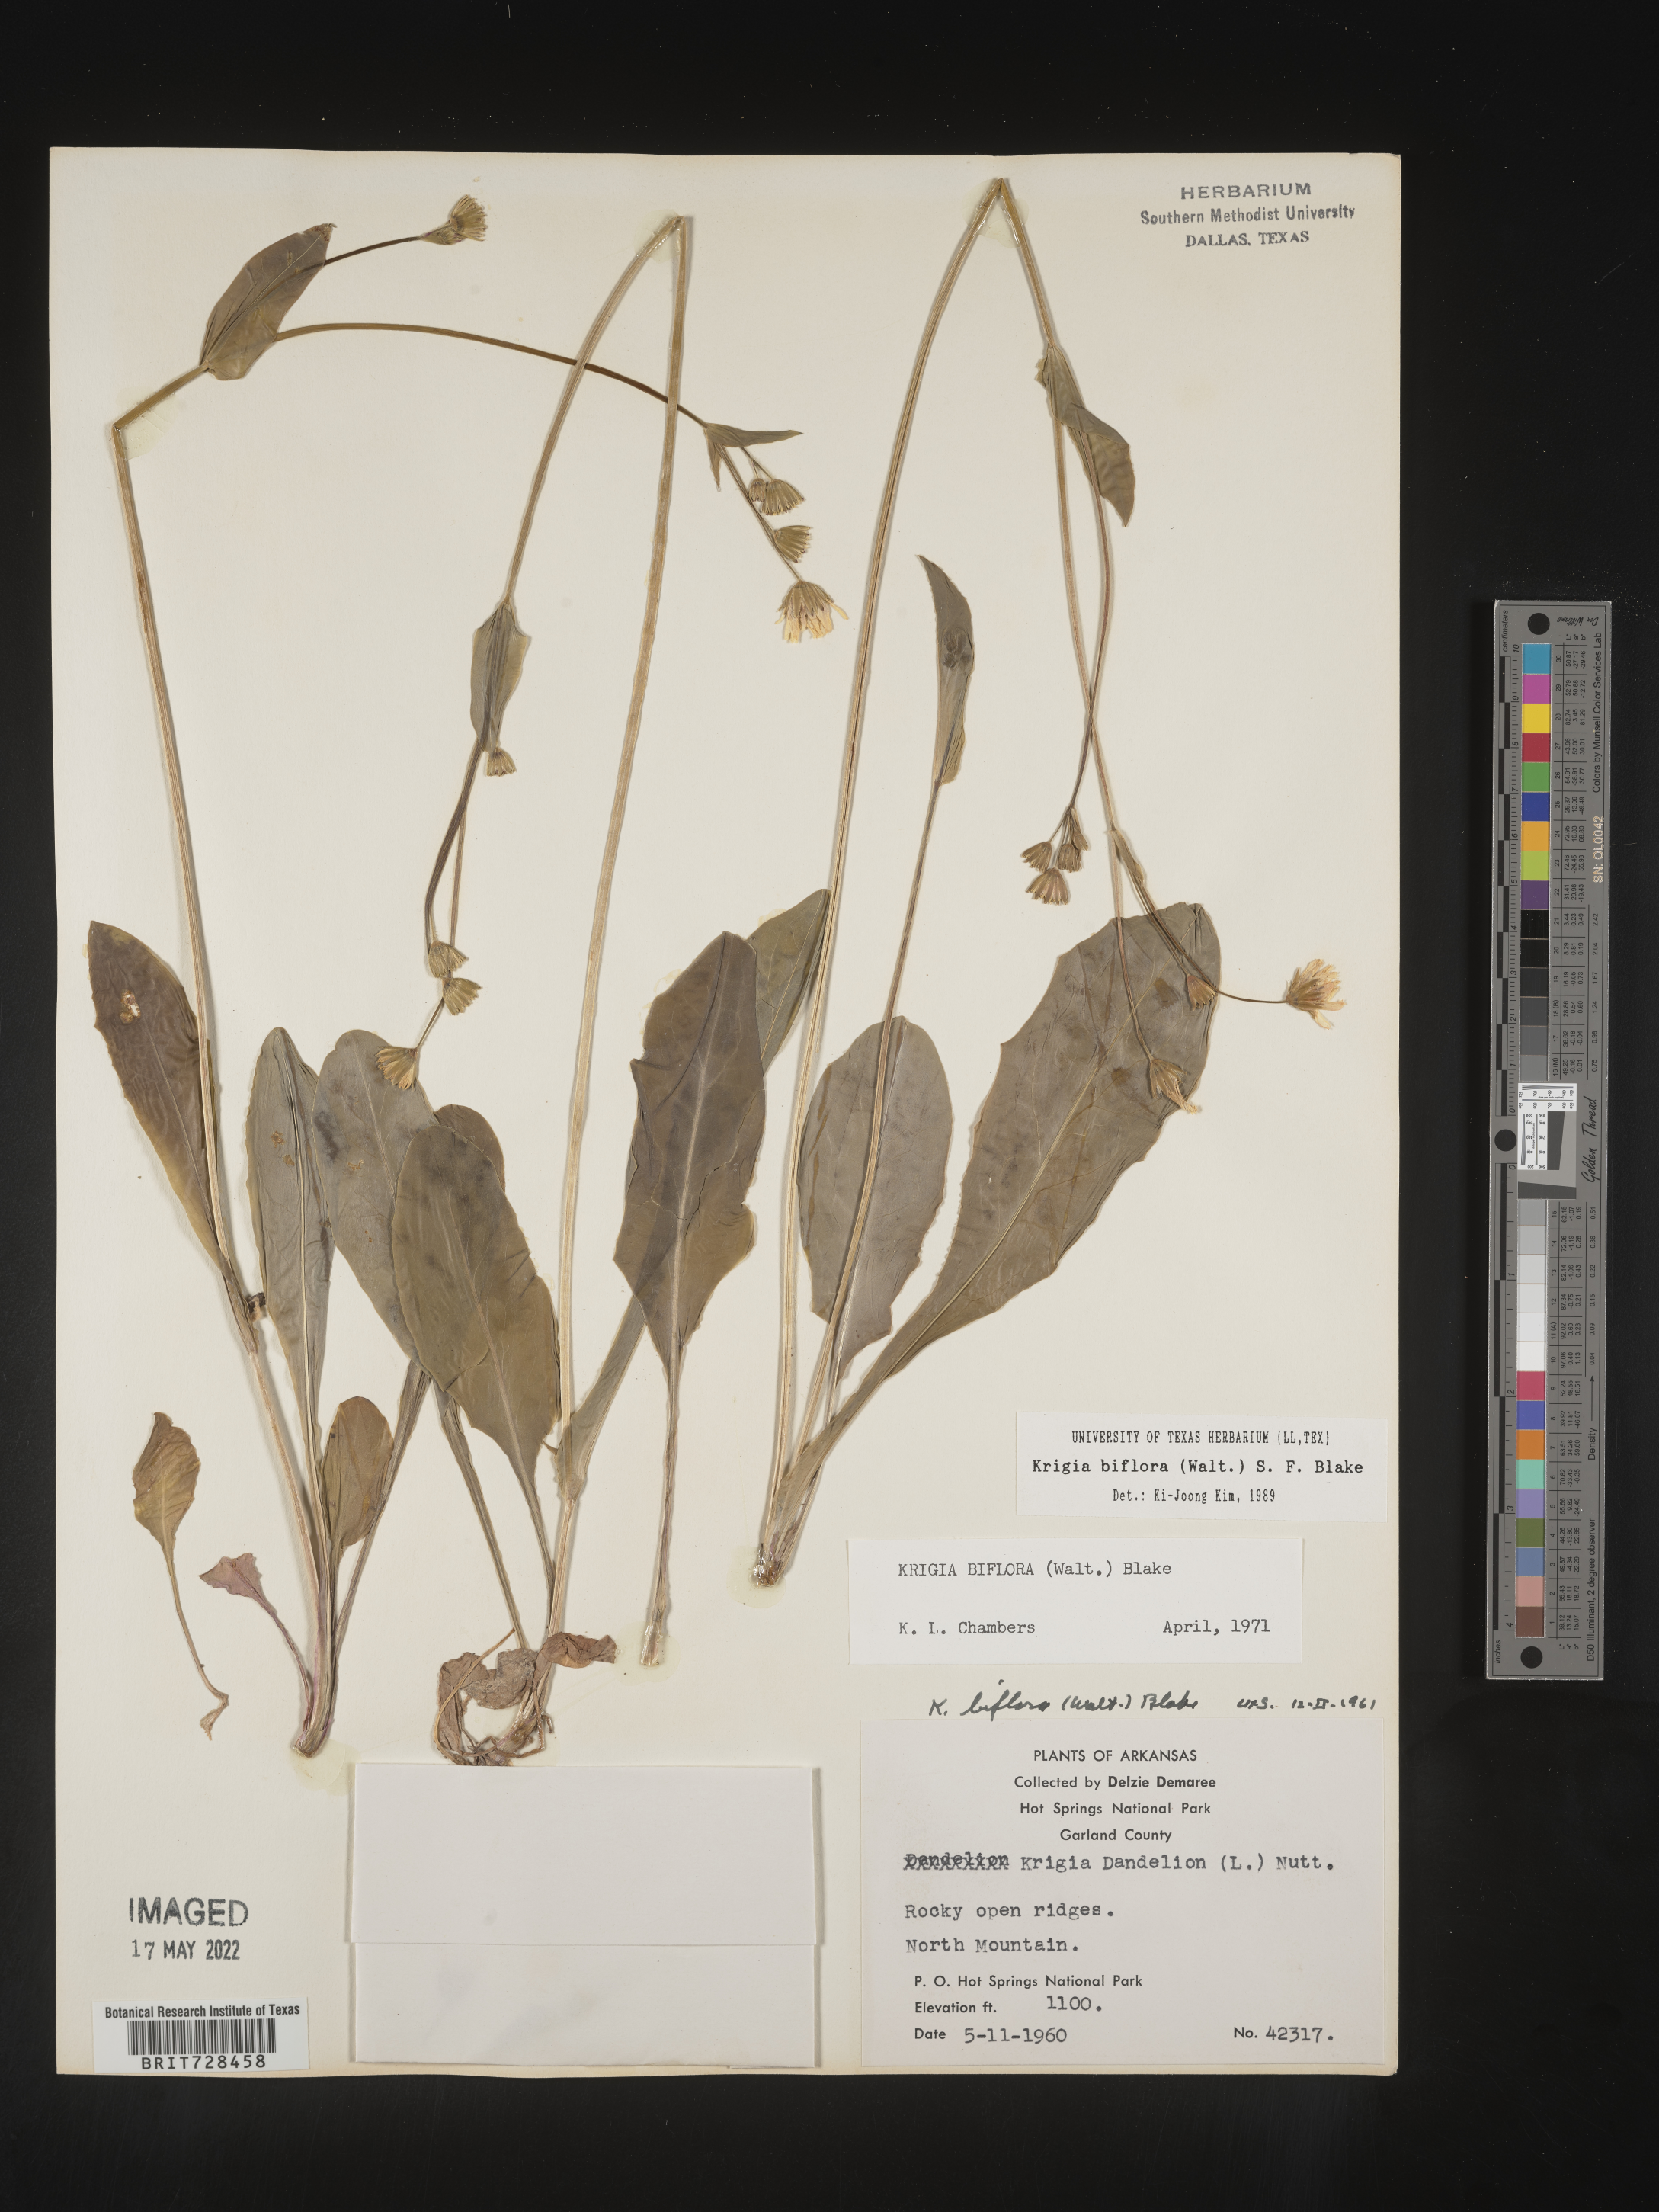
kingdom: Plantae
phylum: Tracheophyta
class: Magnoliopsida
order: Asterales
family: Asteraceae
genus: Krigia
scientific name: Krigia biflora
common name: Orange dwarf-dandelion
